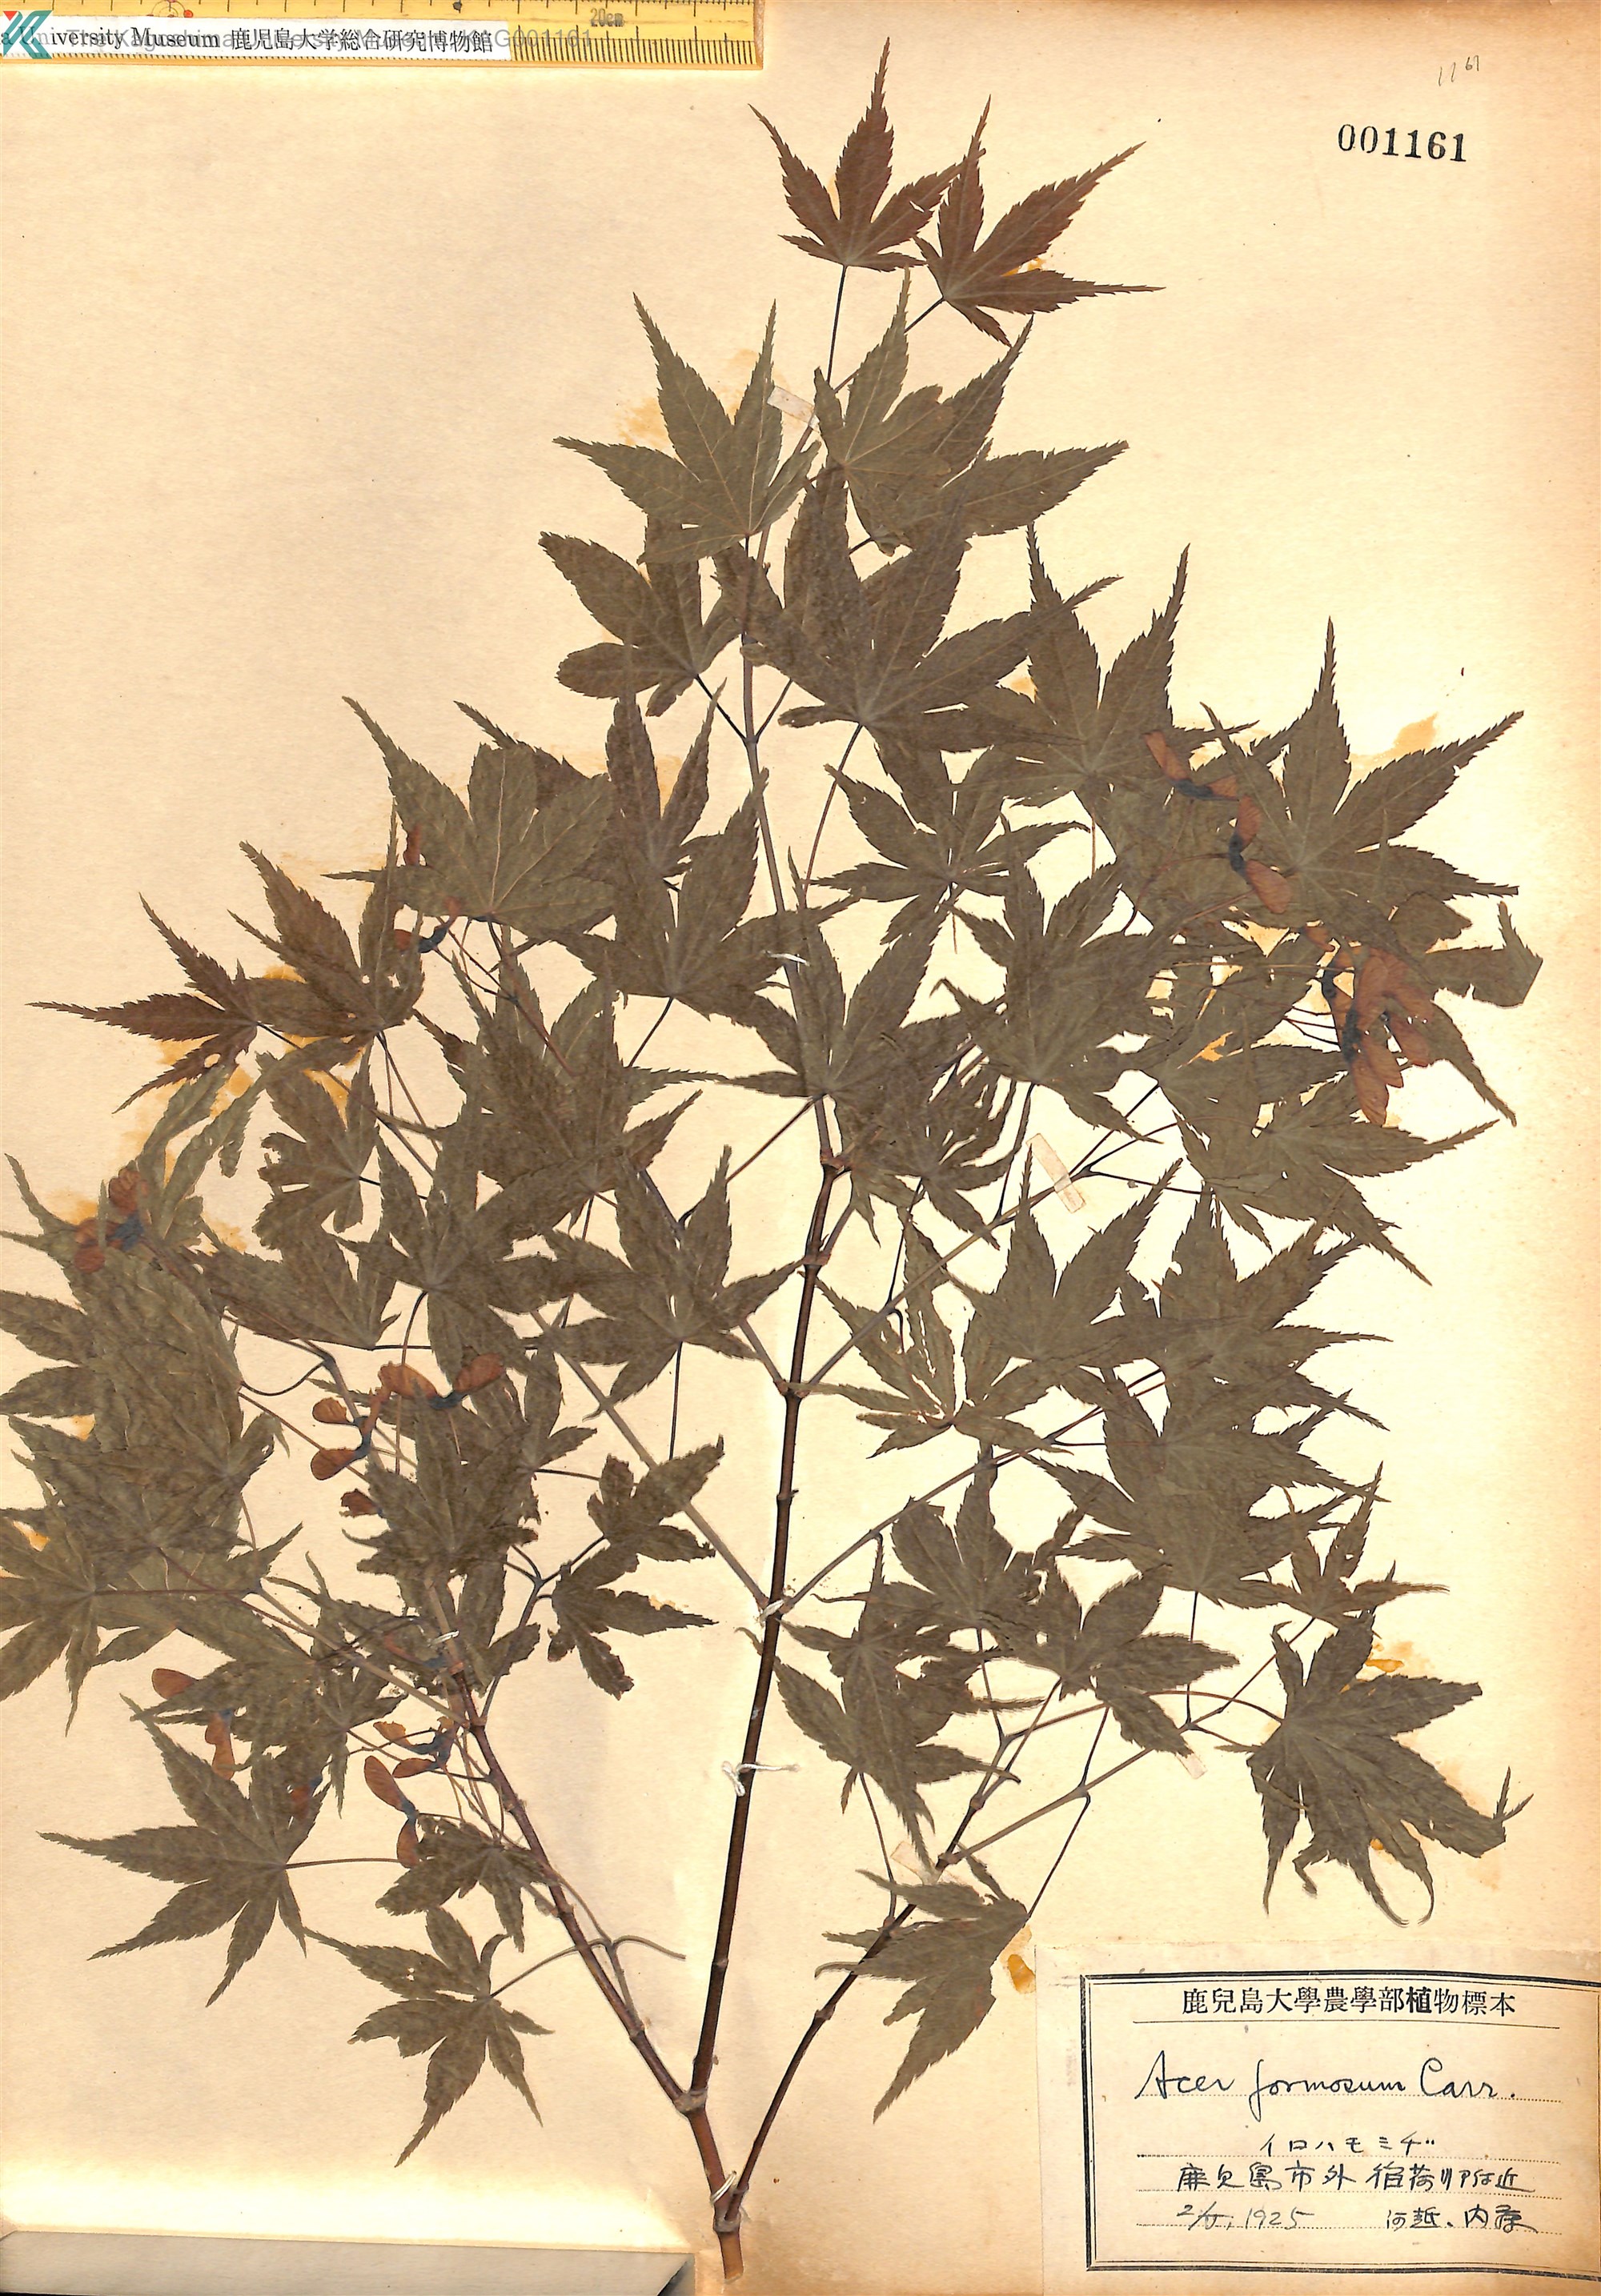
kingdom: Plantae
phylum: Tracheophyta
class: Magnoliopsida
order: Sapindales
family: Sapindaceae
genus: Acer
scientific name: Acer palmatum
